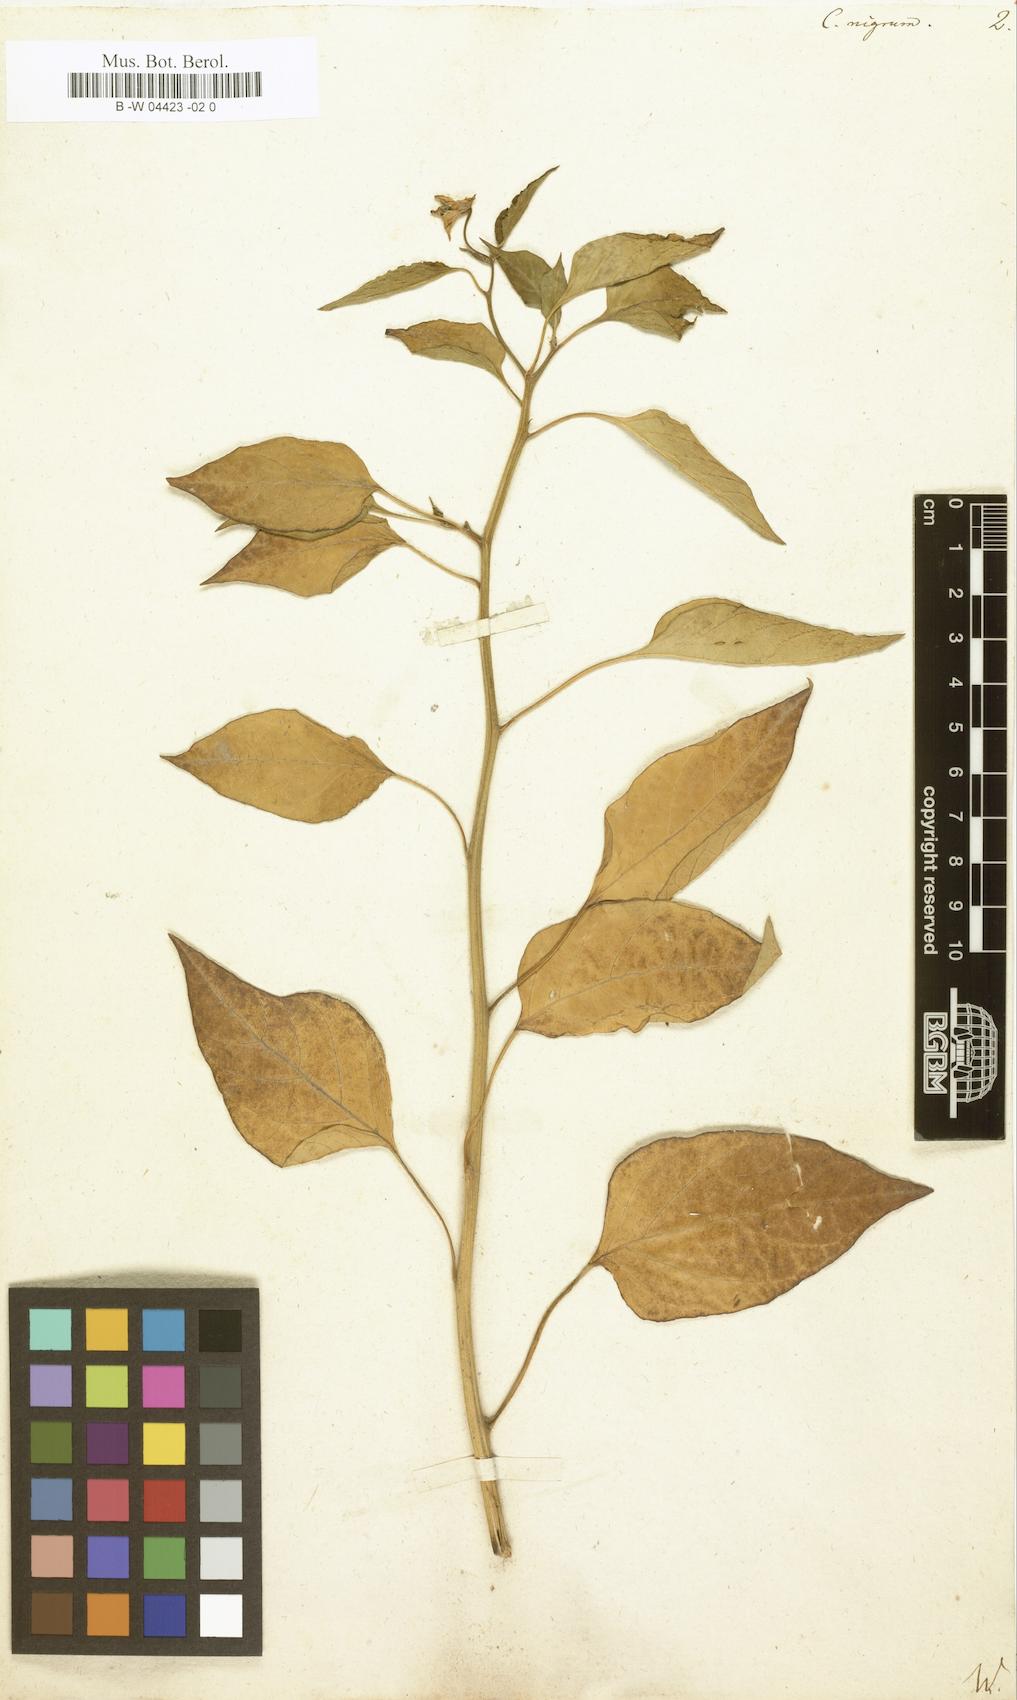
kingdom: Plantae
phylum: Tracheophyta
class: Magnoliopsida
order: Solanales
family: Solanaceae
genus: Capsicum
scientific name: Capsicum annuum
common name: Sweet pepper
